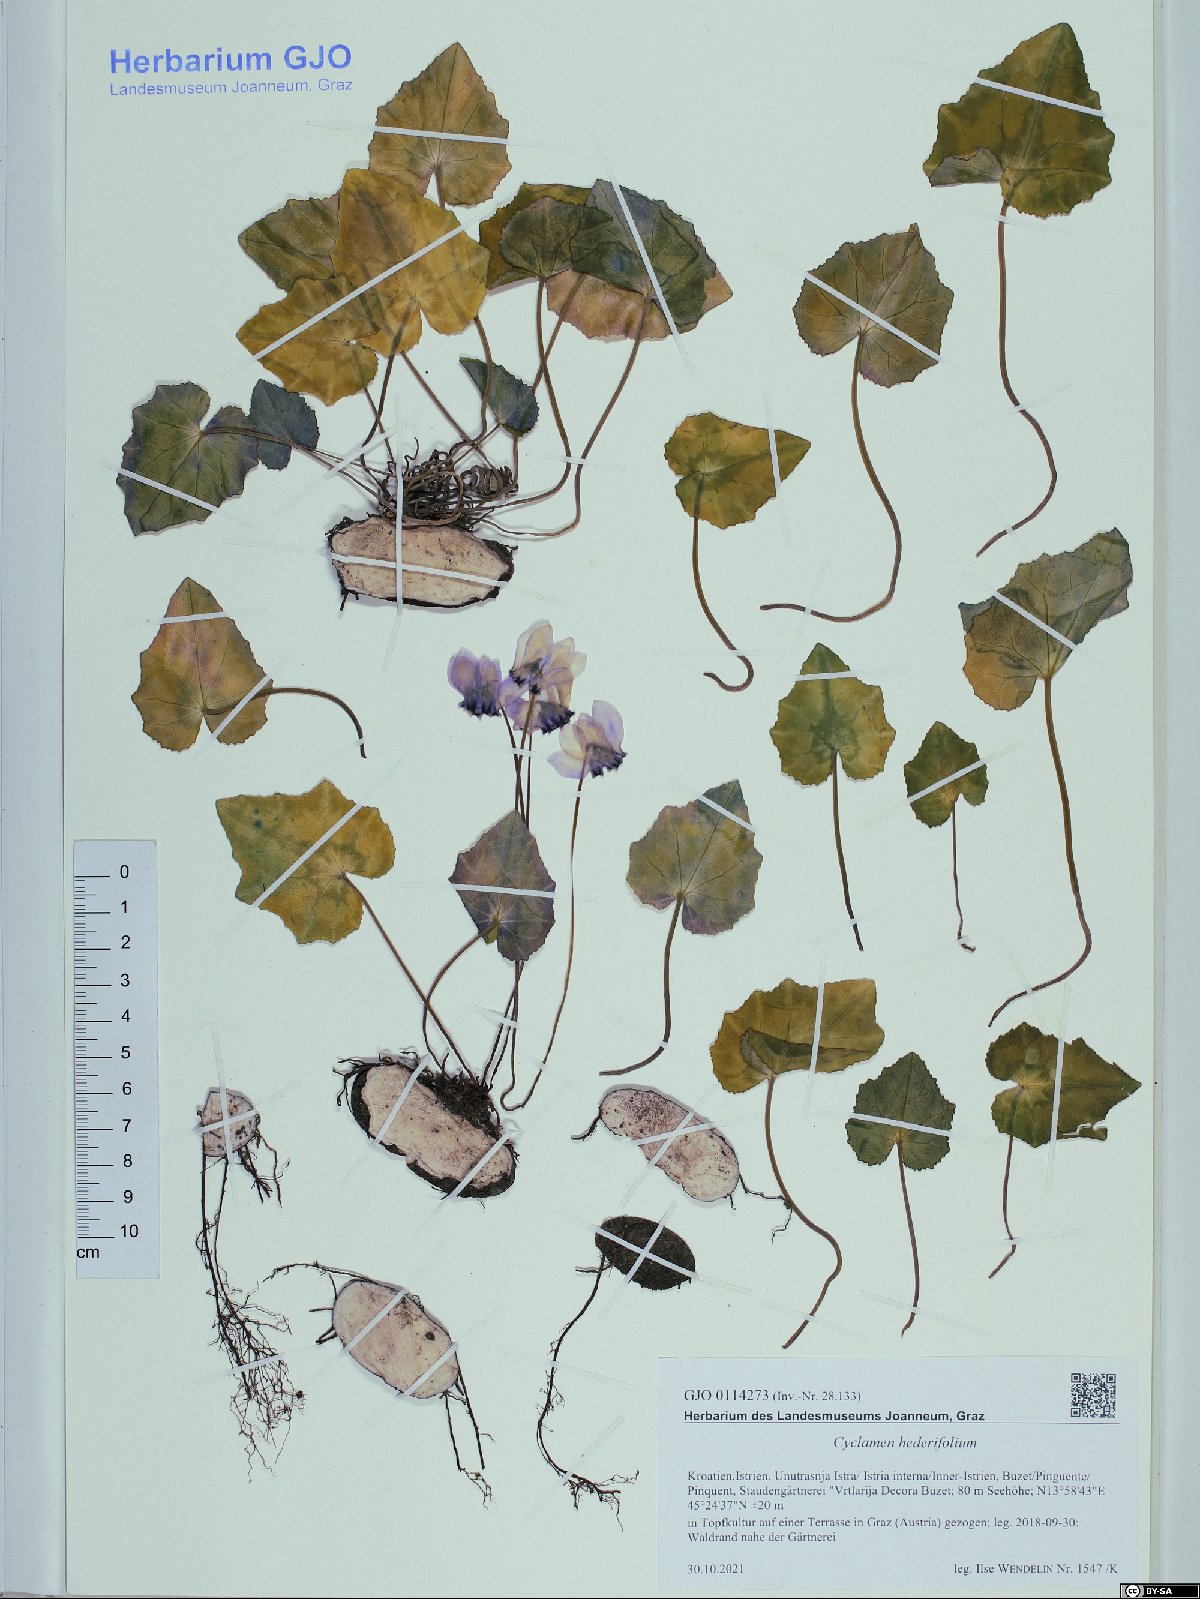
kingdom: Plantae
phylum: Tracheophyta
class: Magnoliopsida
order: Ericales
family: Primulaceae
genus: Cyclamen
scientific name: Cyclamen hederifolium
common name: Sowbread
